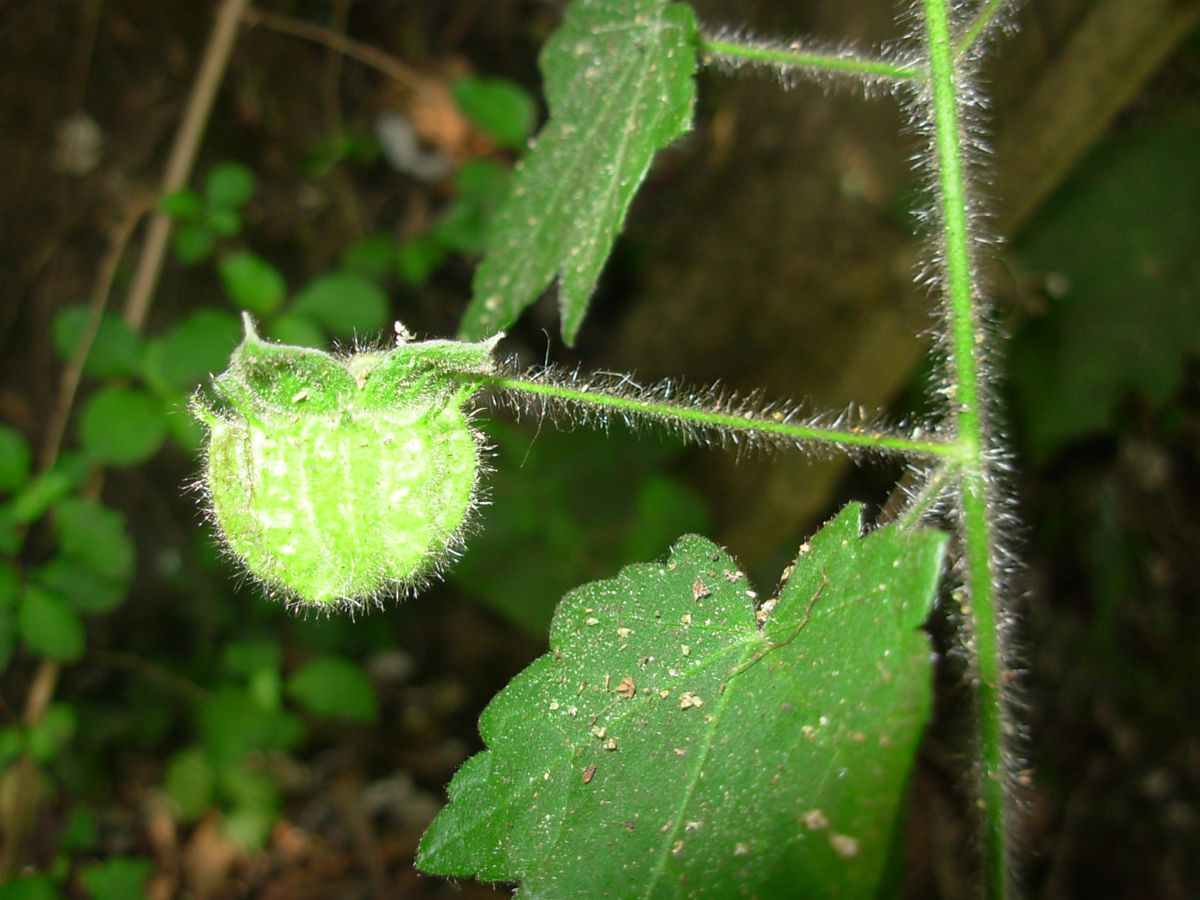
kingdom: Plantae
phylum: Tracheophyta
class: Magnoliopsida
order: Malvales
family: Malvaceae
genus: Neobrittonia
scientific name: Neobrittonia acerifolia
